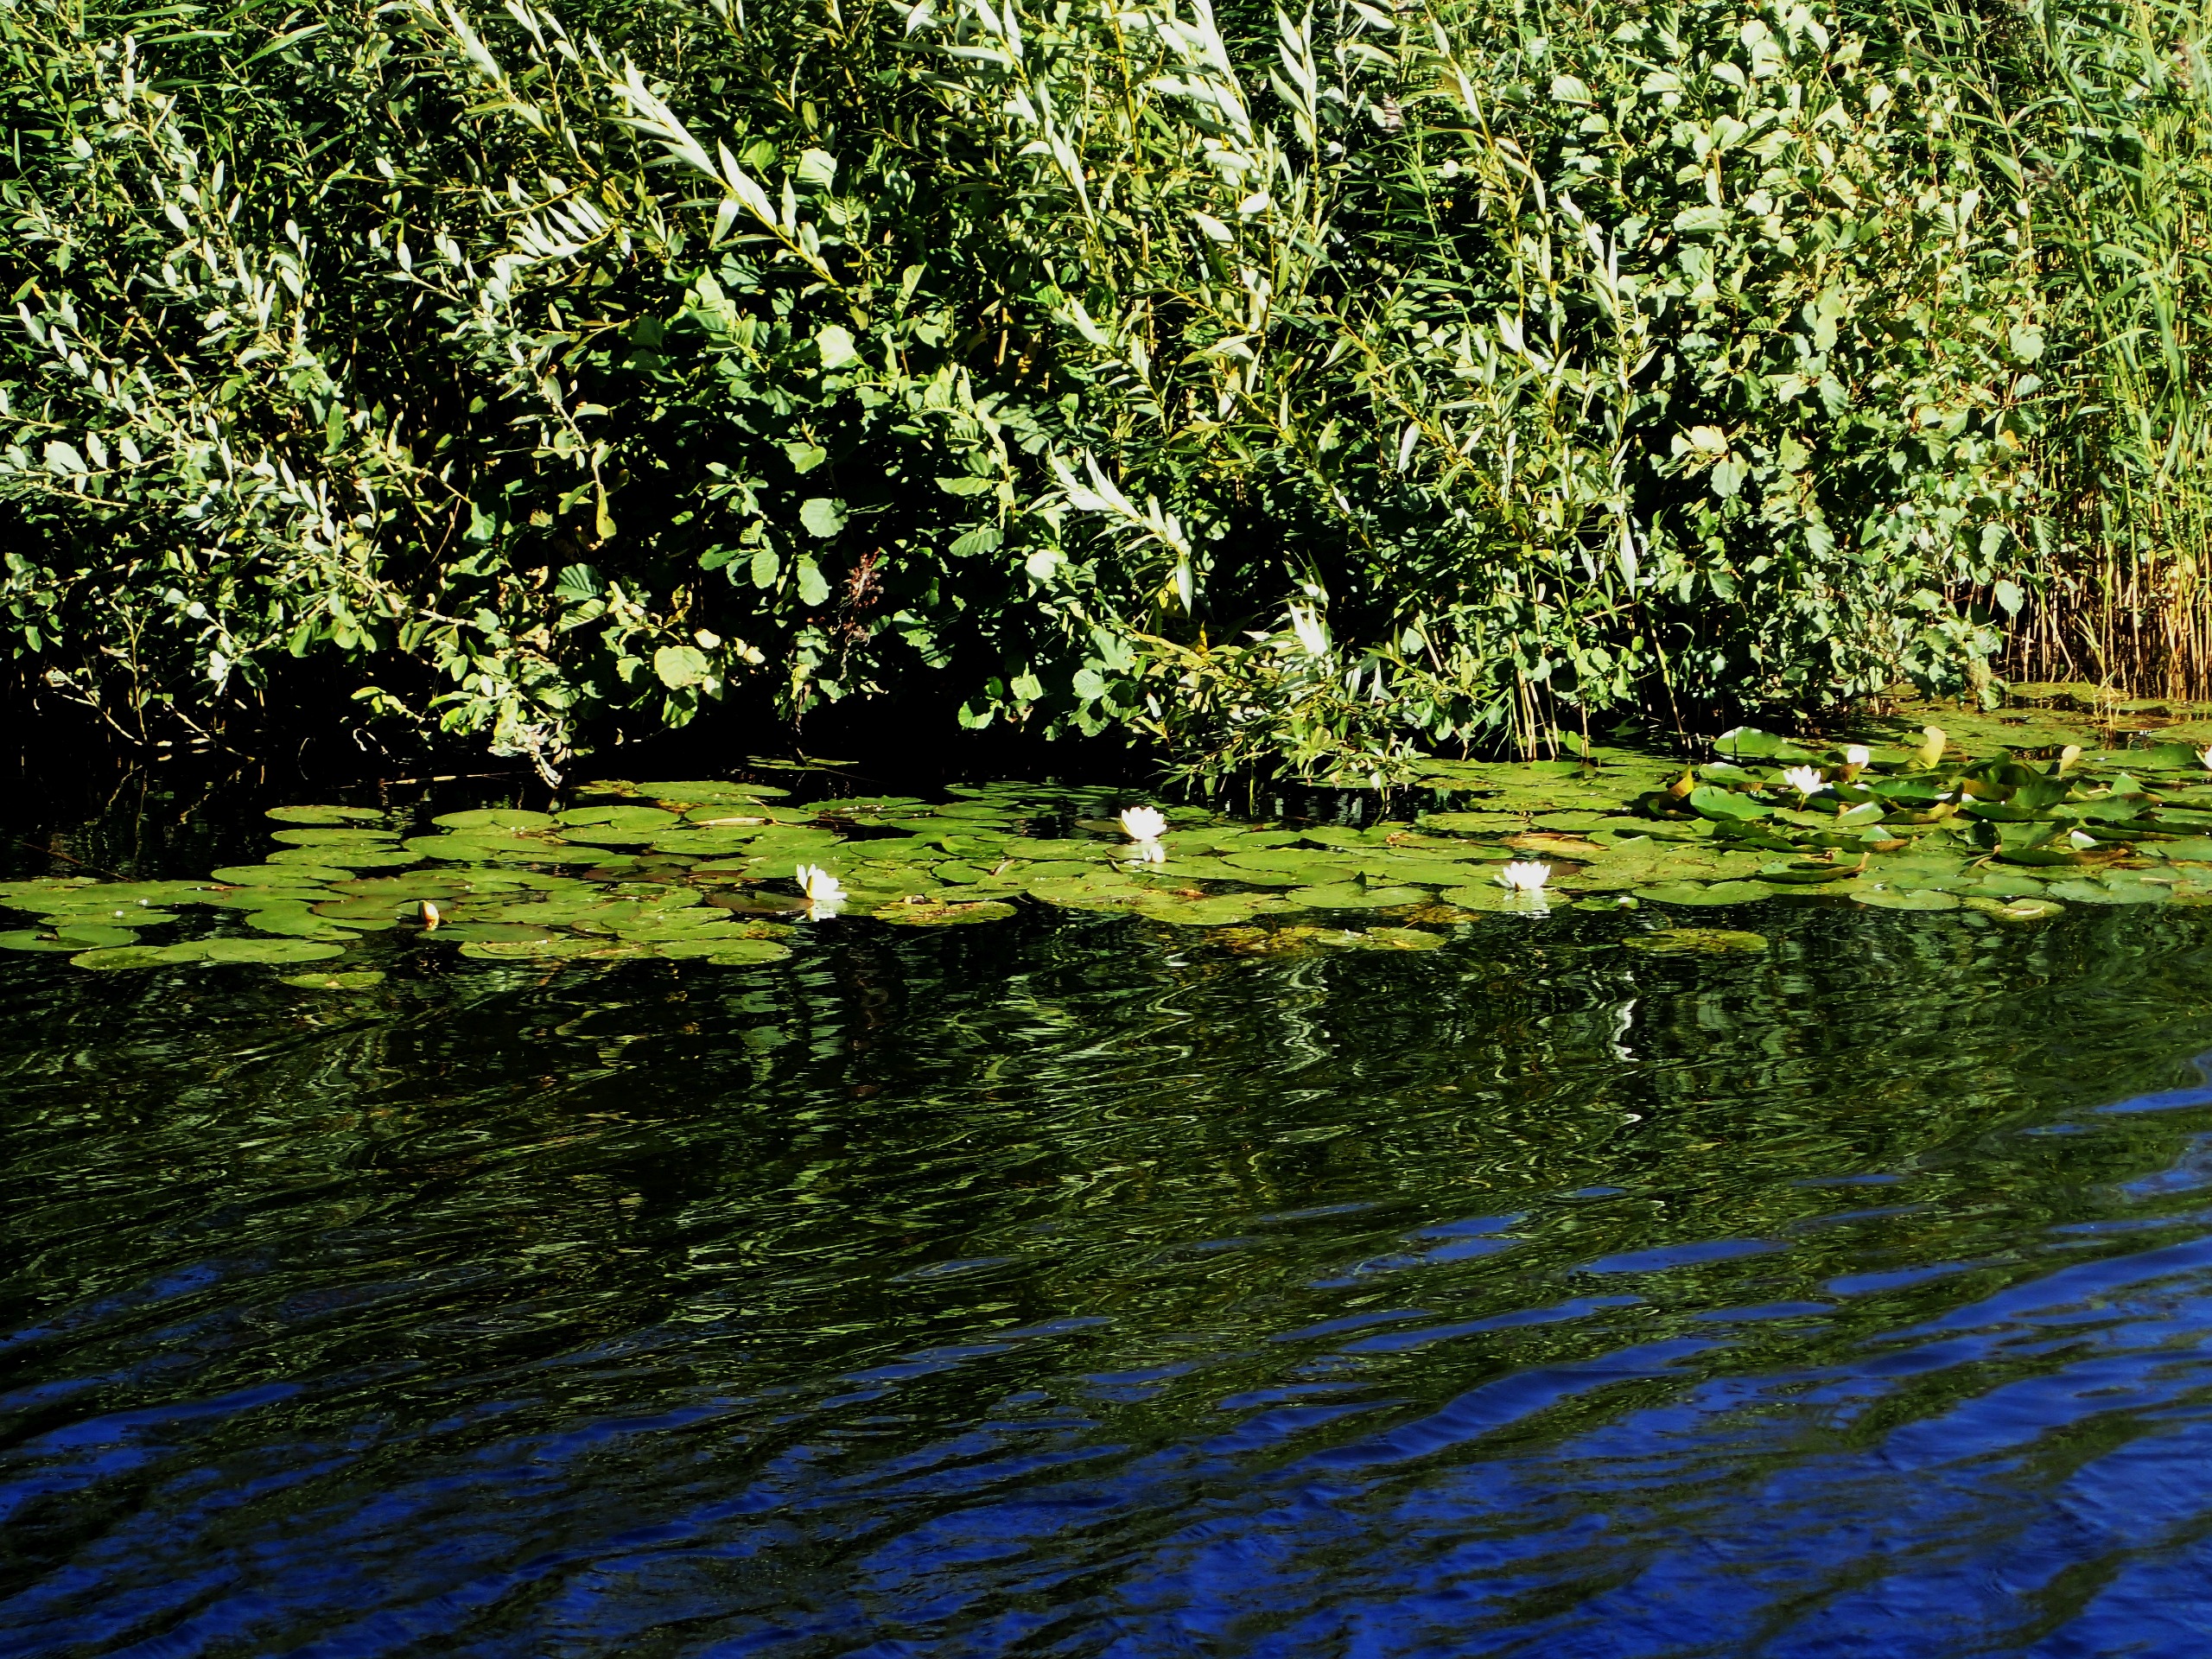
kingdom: Plantae
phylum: Tracheophyta
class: Magnoliopsida
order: Nymphaeales
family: Nymphaeaceae
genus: Nymphaea
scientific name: Nymphaea alba
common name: Hvid åkande
